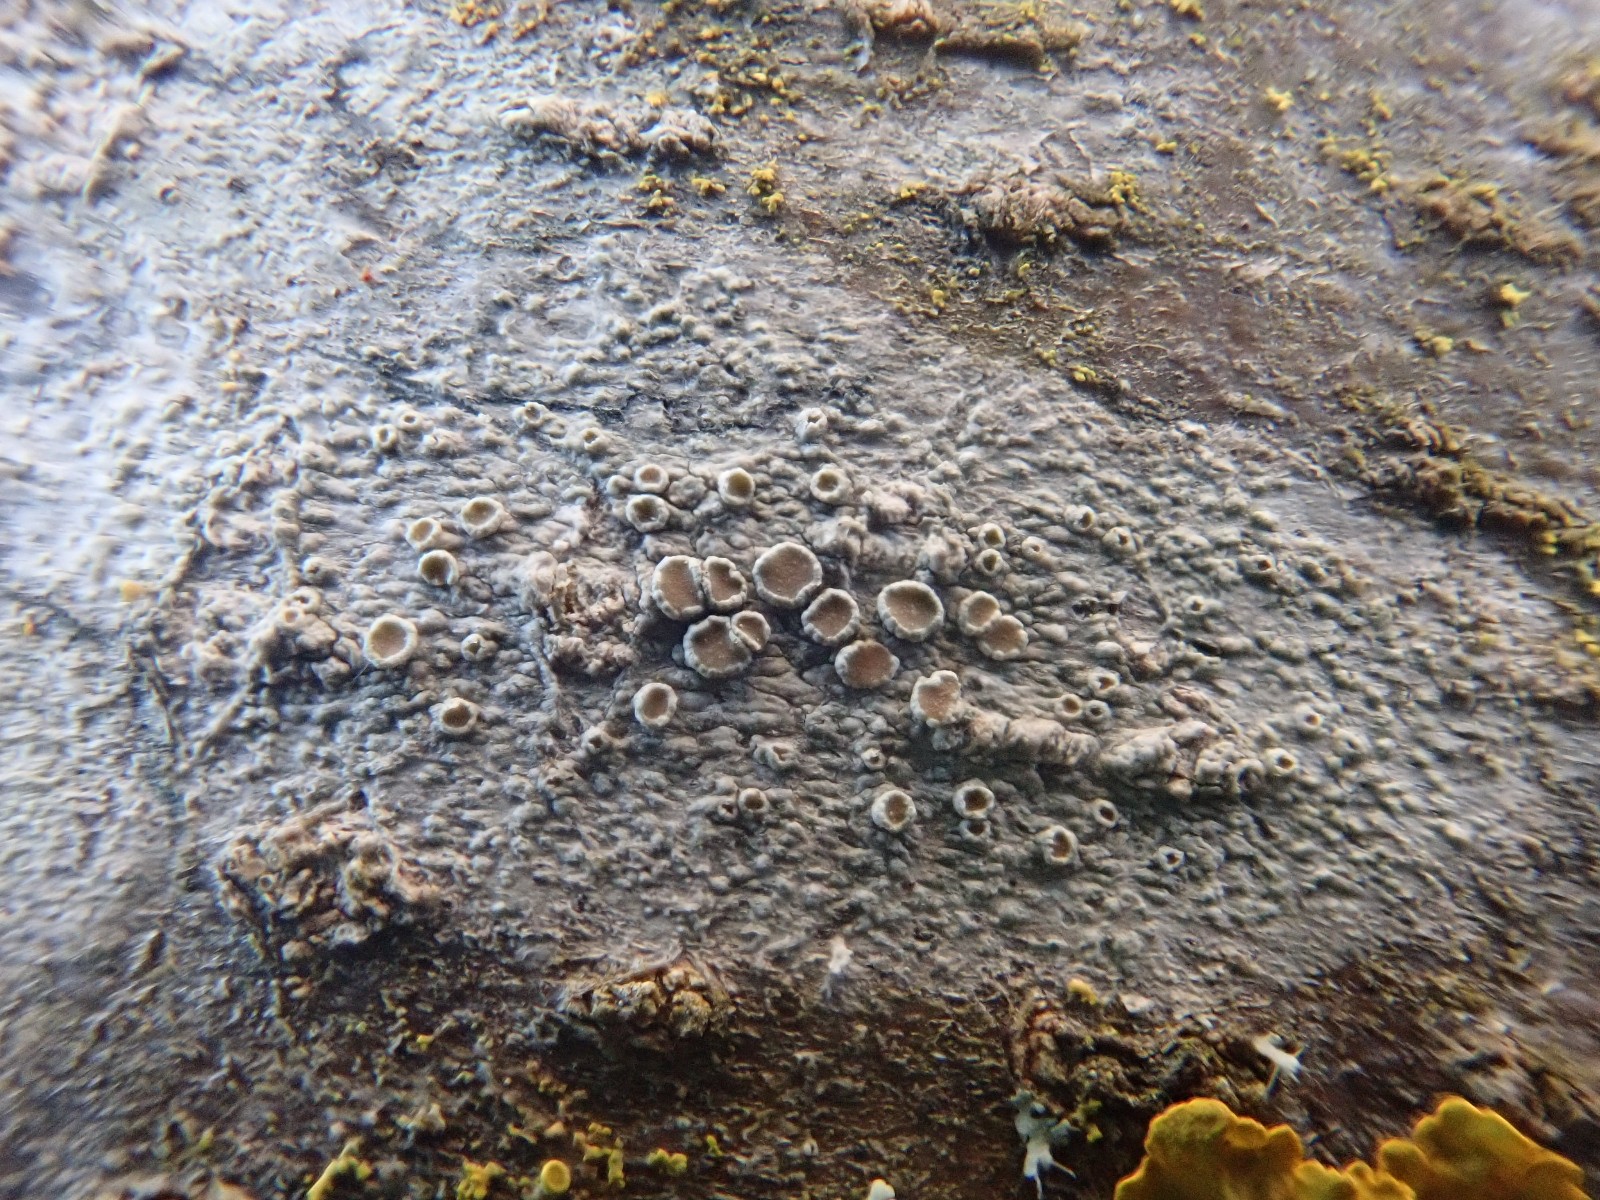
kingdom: Fungi
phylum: Ascomycota
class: Lecanoromycetes
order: Lecanorales
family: Lecanoraceae
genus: Lecanora
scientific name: Lecanora chlarotera
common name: brun kantskivelav
